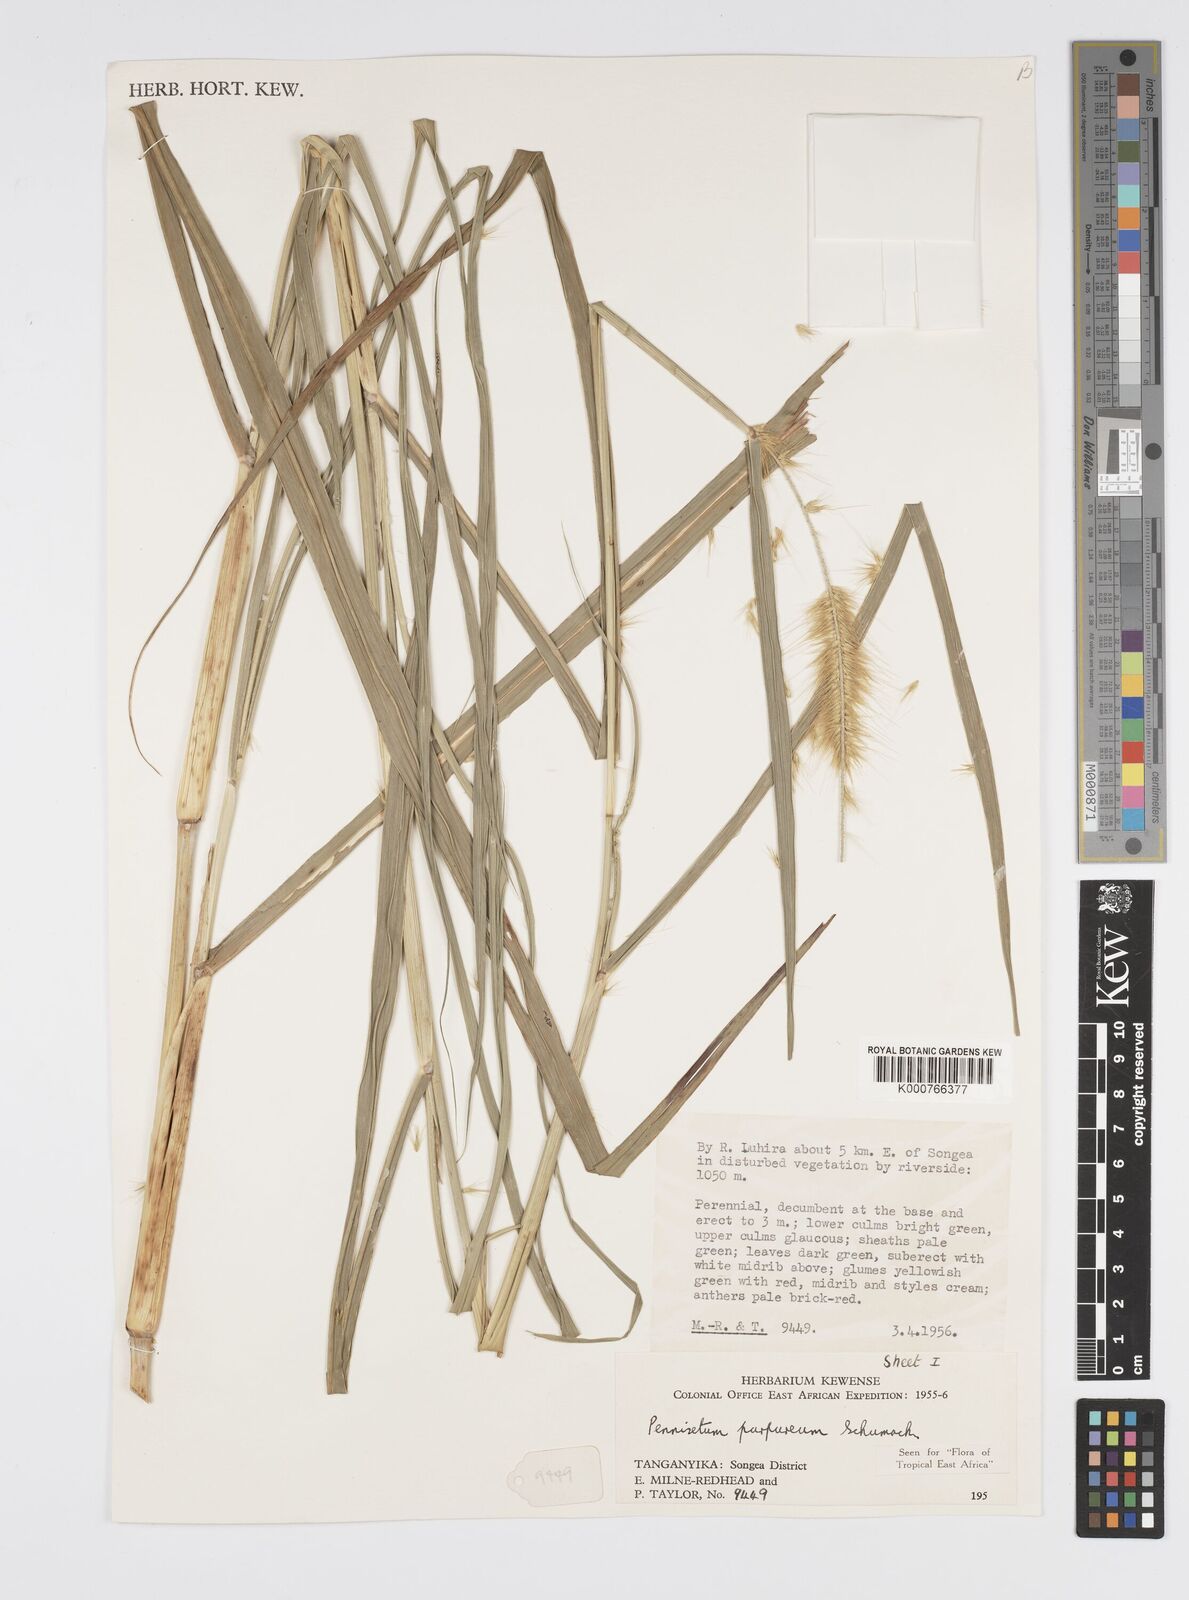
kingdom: Plantae
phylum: Tracheophyta
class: Liliopsida
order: Poales
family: Poaceae
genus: Cenchrus
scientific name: Cenchrus purpureus
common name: Elephant grass
